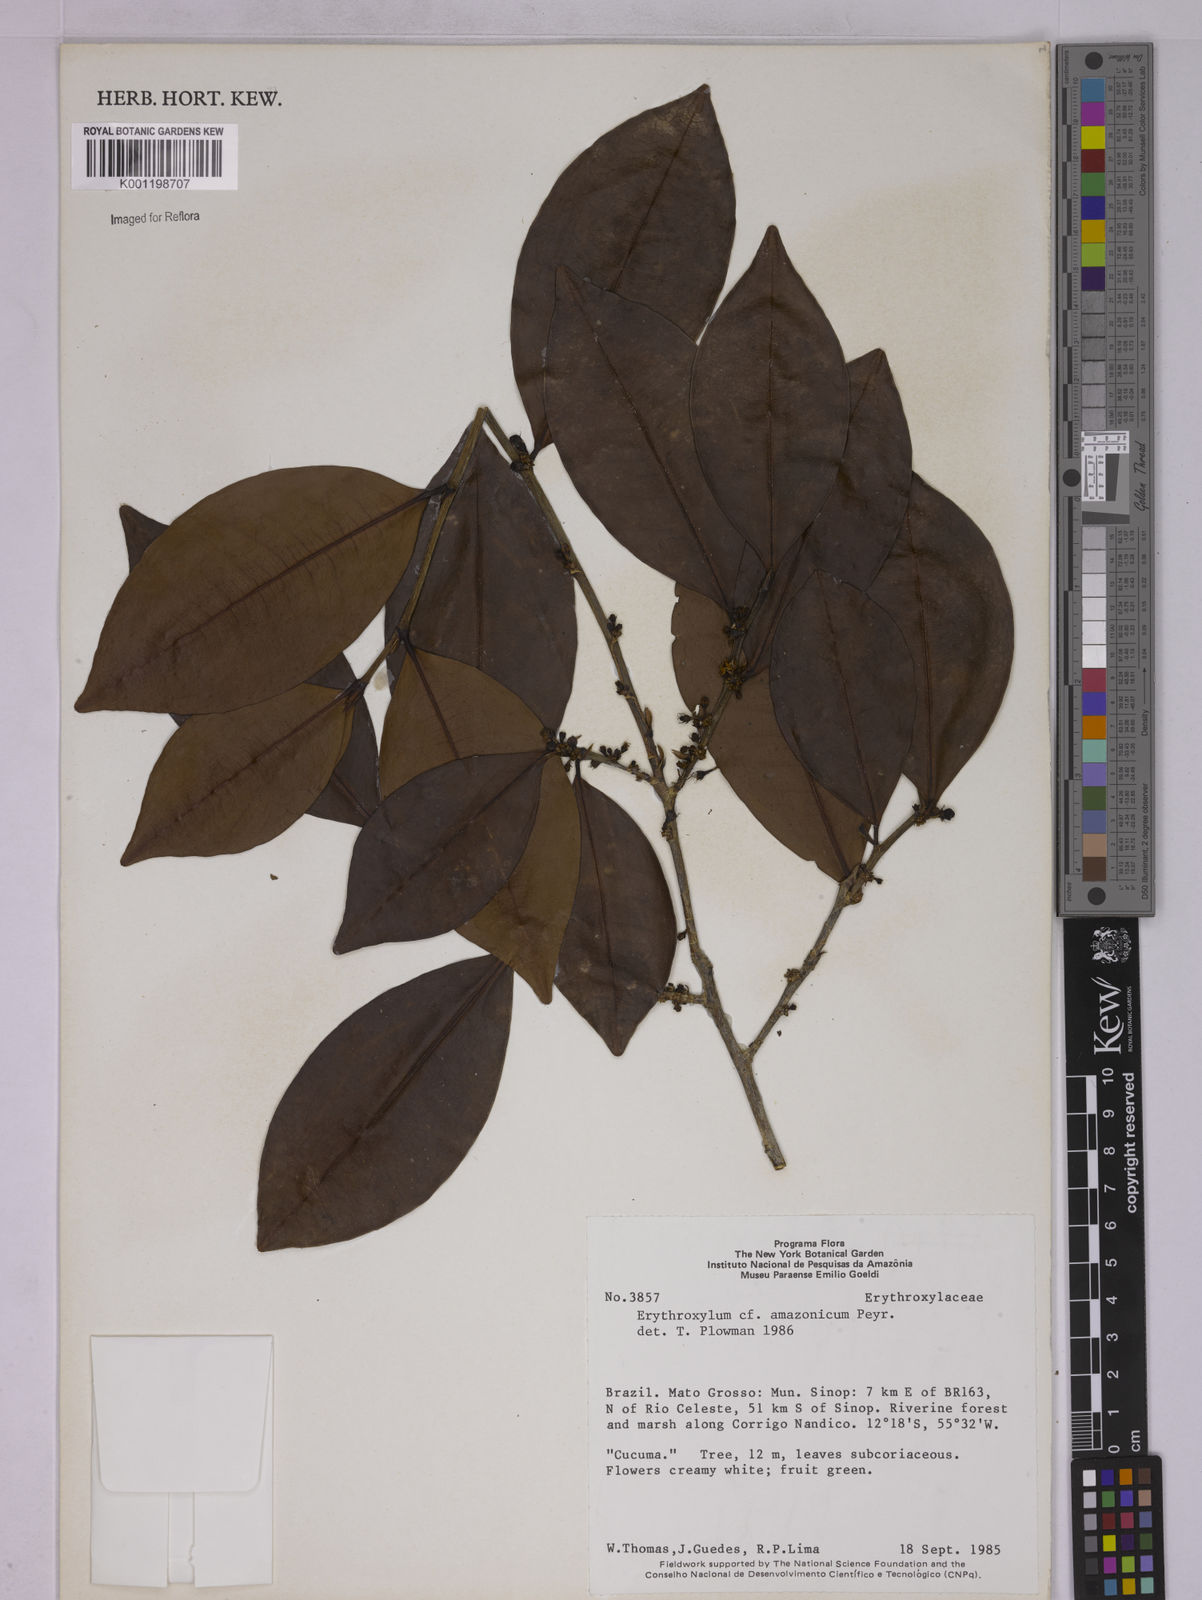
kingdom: Plantae
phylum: Tracheophyta
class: Magnoliopsida
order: Malpighiales
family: Erythroxylaceae
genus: Erythroxylum
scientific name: Erythroxylum amazonicum
